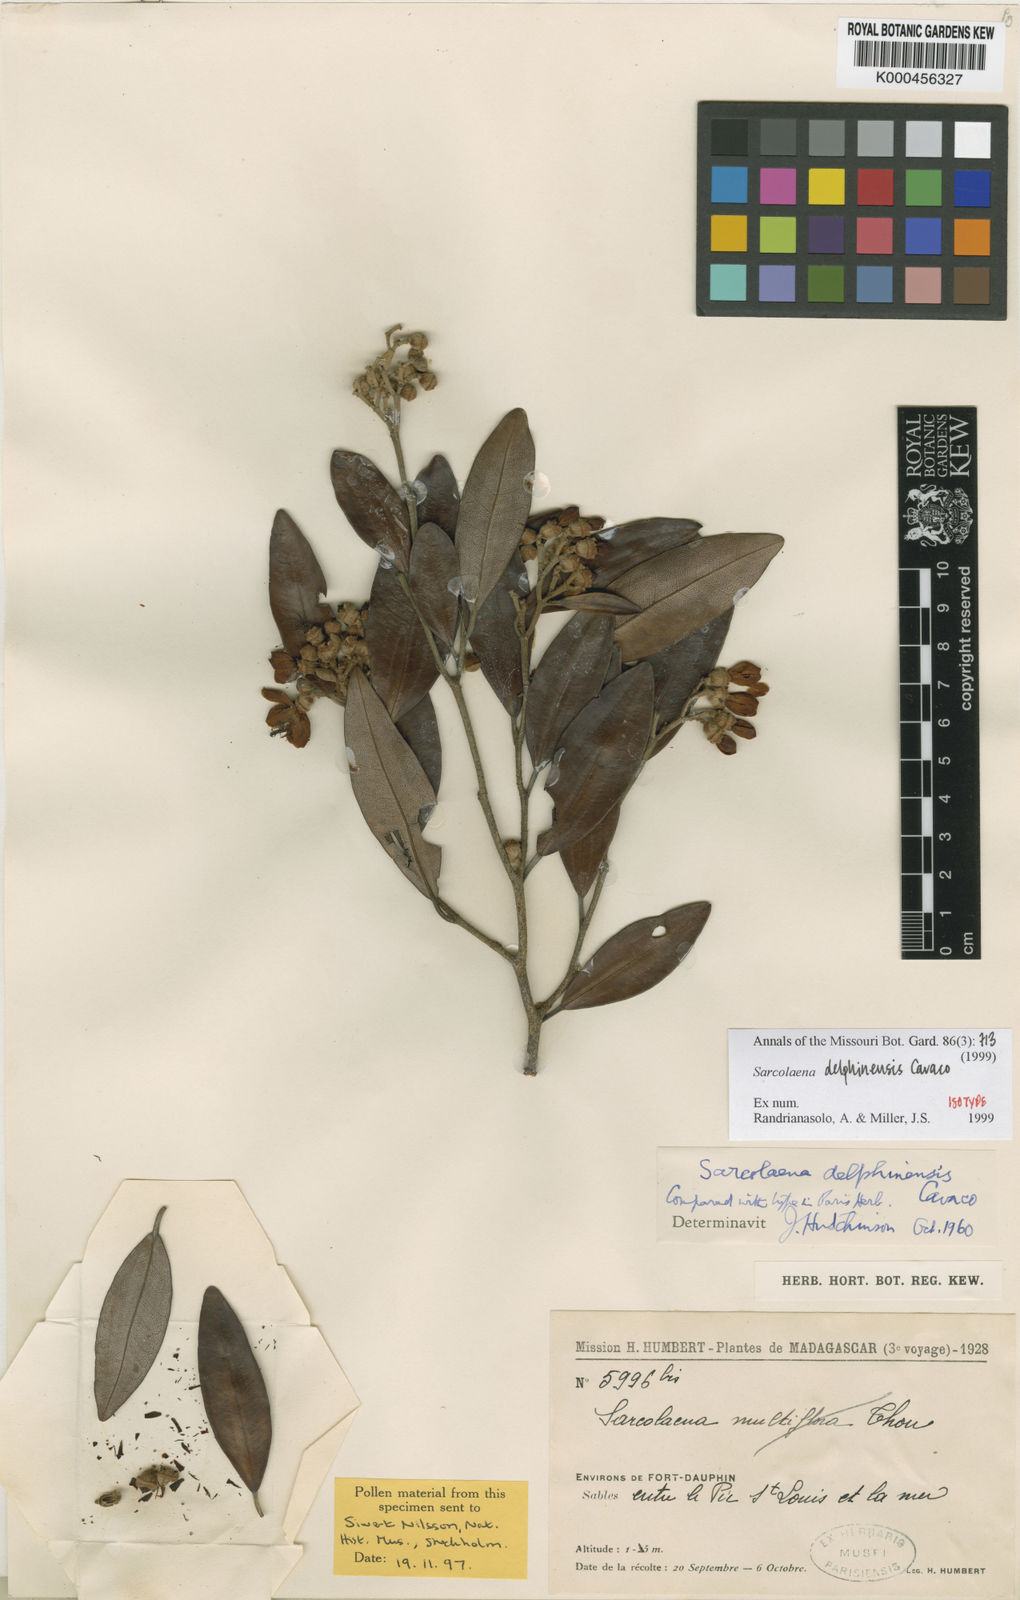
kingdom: Plantae
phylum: Tracheophyta
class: Magnoliopsida
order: Malvales
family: Sarcolaenaceae
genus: Sarcolaena
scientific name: Sarcolaena delphinensis
